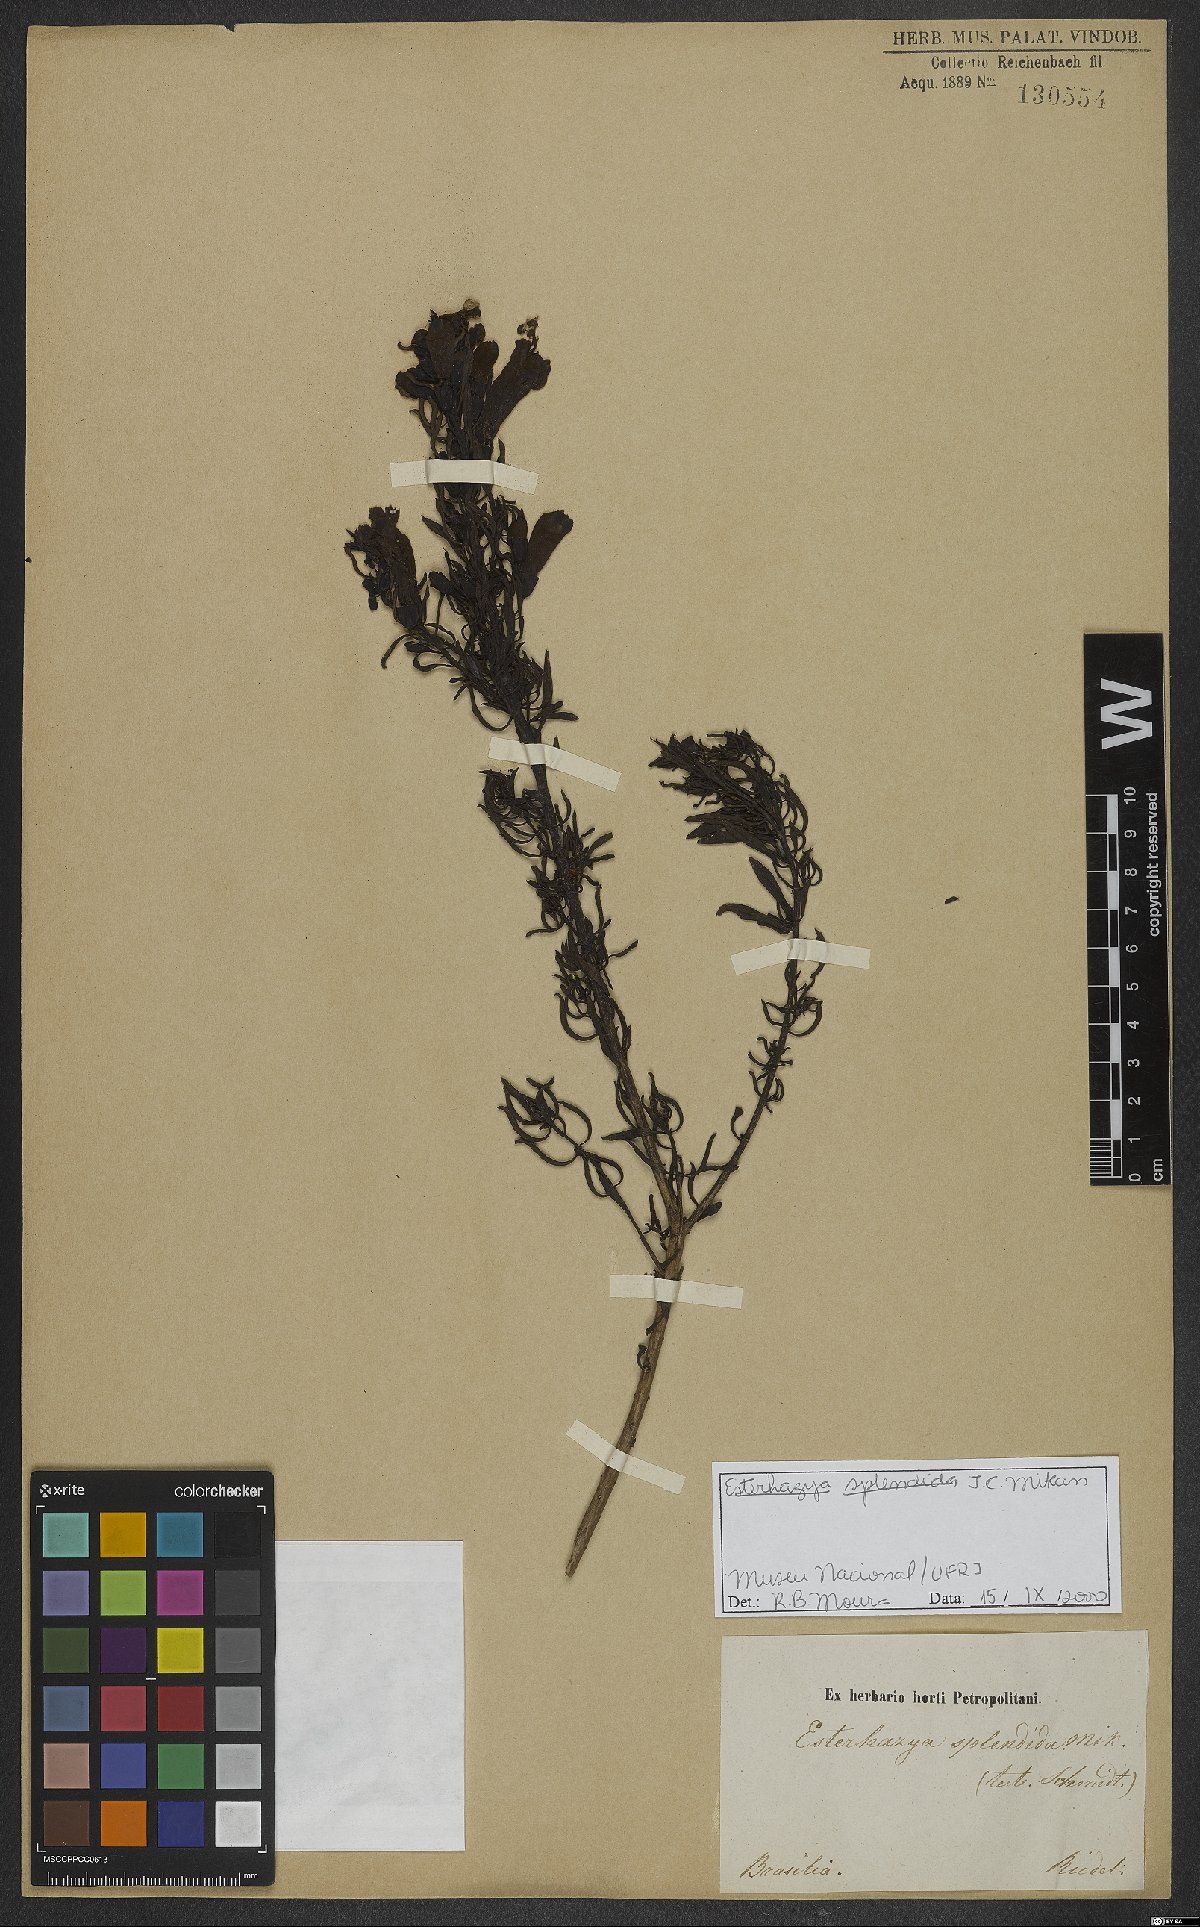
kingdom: Plantae
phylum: Tracheophyta
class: Magnoliopsida
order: Lamiales
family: Orobanchaceae
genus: Esterhazya
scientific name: Esterhazya splendida
